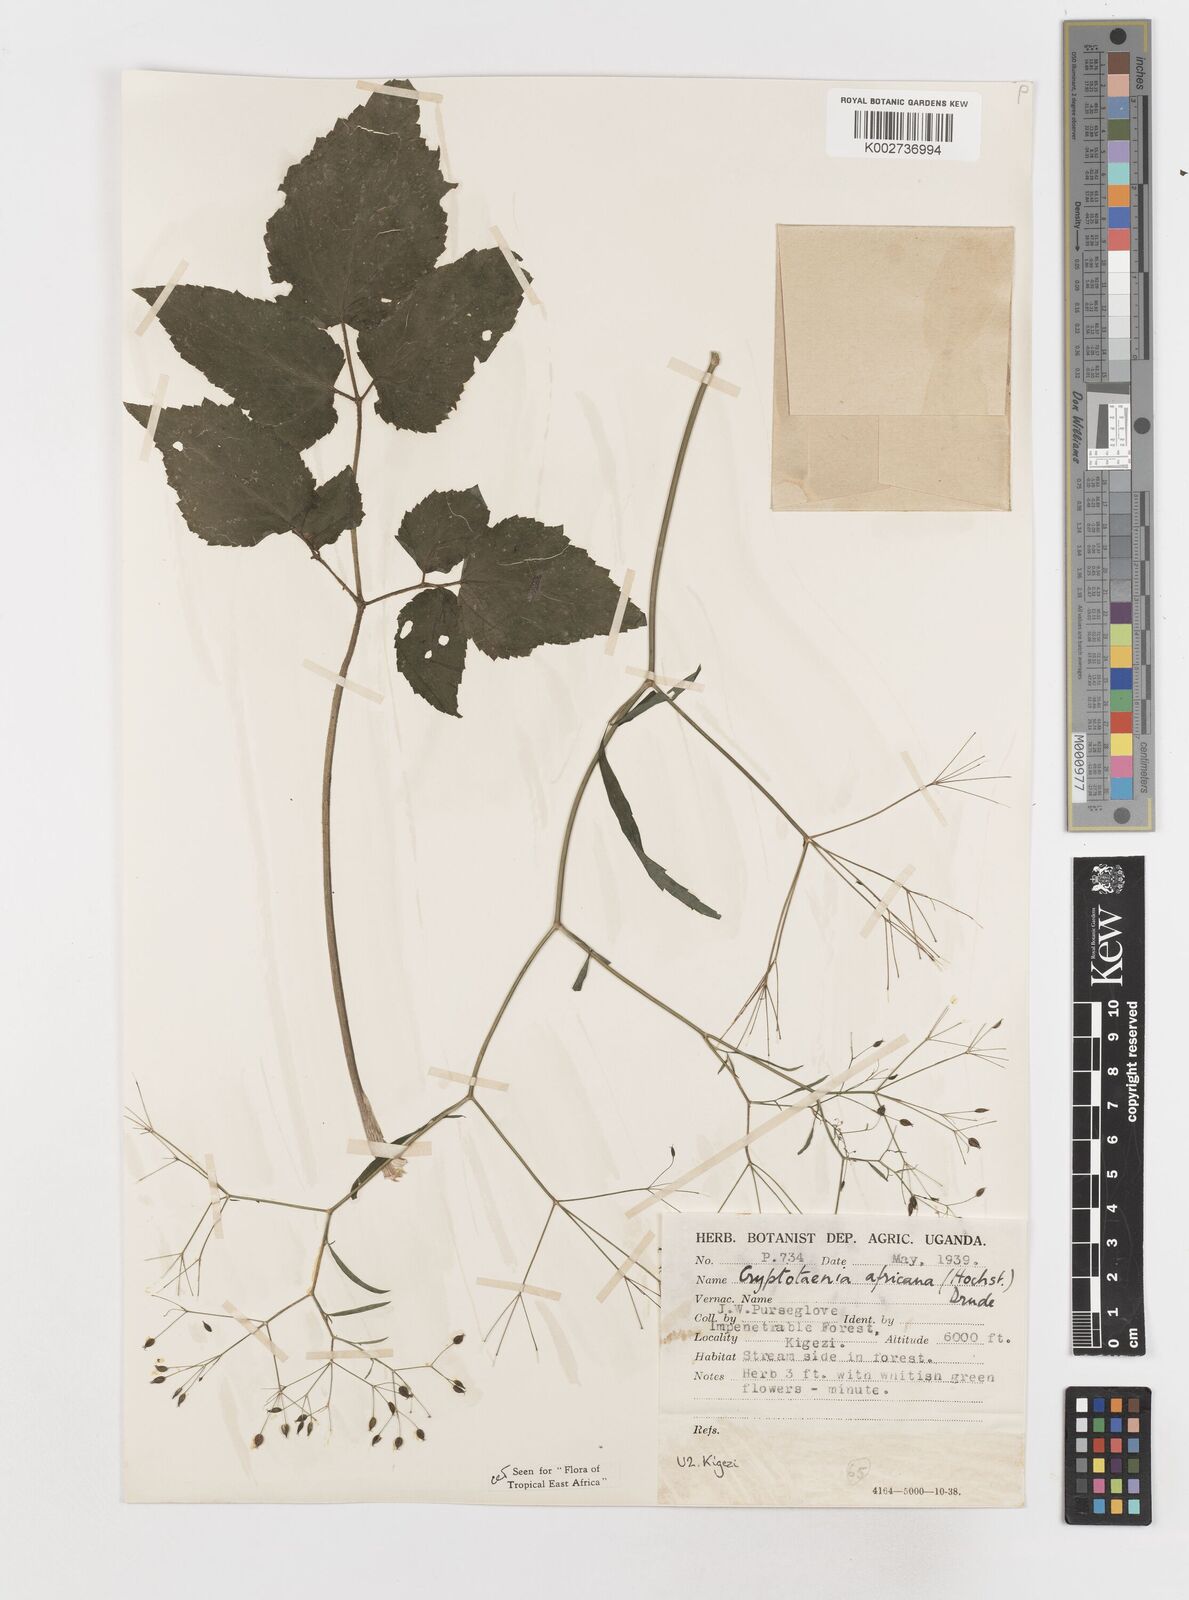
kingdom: Plantae
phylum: Tracheophyta
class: Magnoliopsida
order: Apiales
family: Apiaceae
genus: Cryptotaenia
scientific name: Cryptotaenia africana
